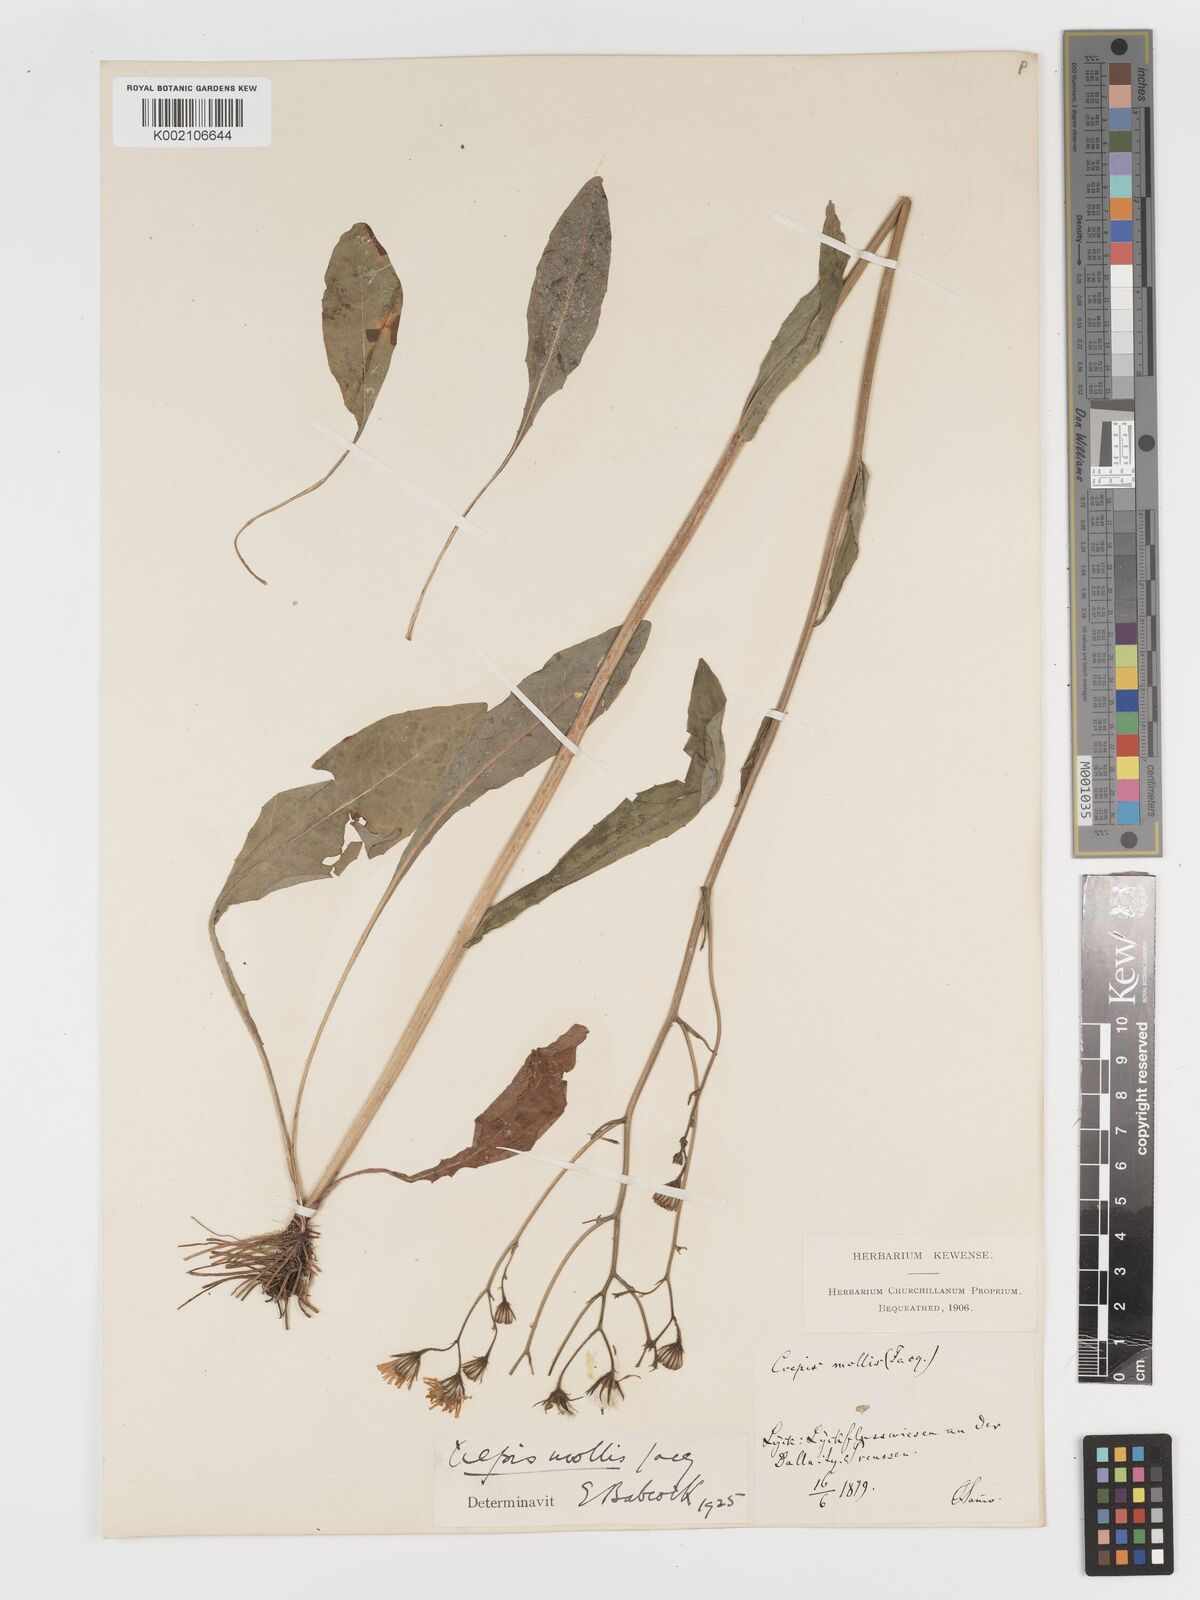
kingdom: Plantae
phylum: Tracheophyta
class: Magnoliopsida
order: Asterales
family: Asteraceae
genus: Crepis
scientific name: Crepis mollis
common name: Northern hawk's-beard
